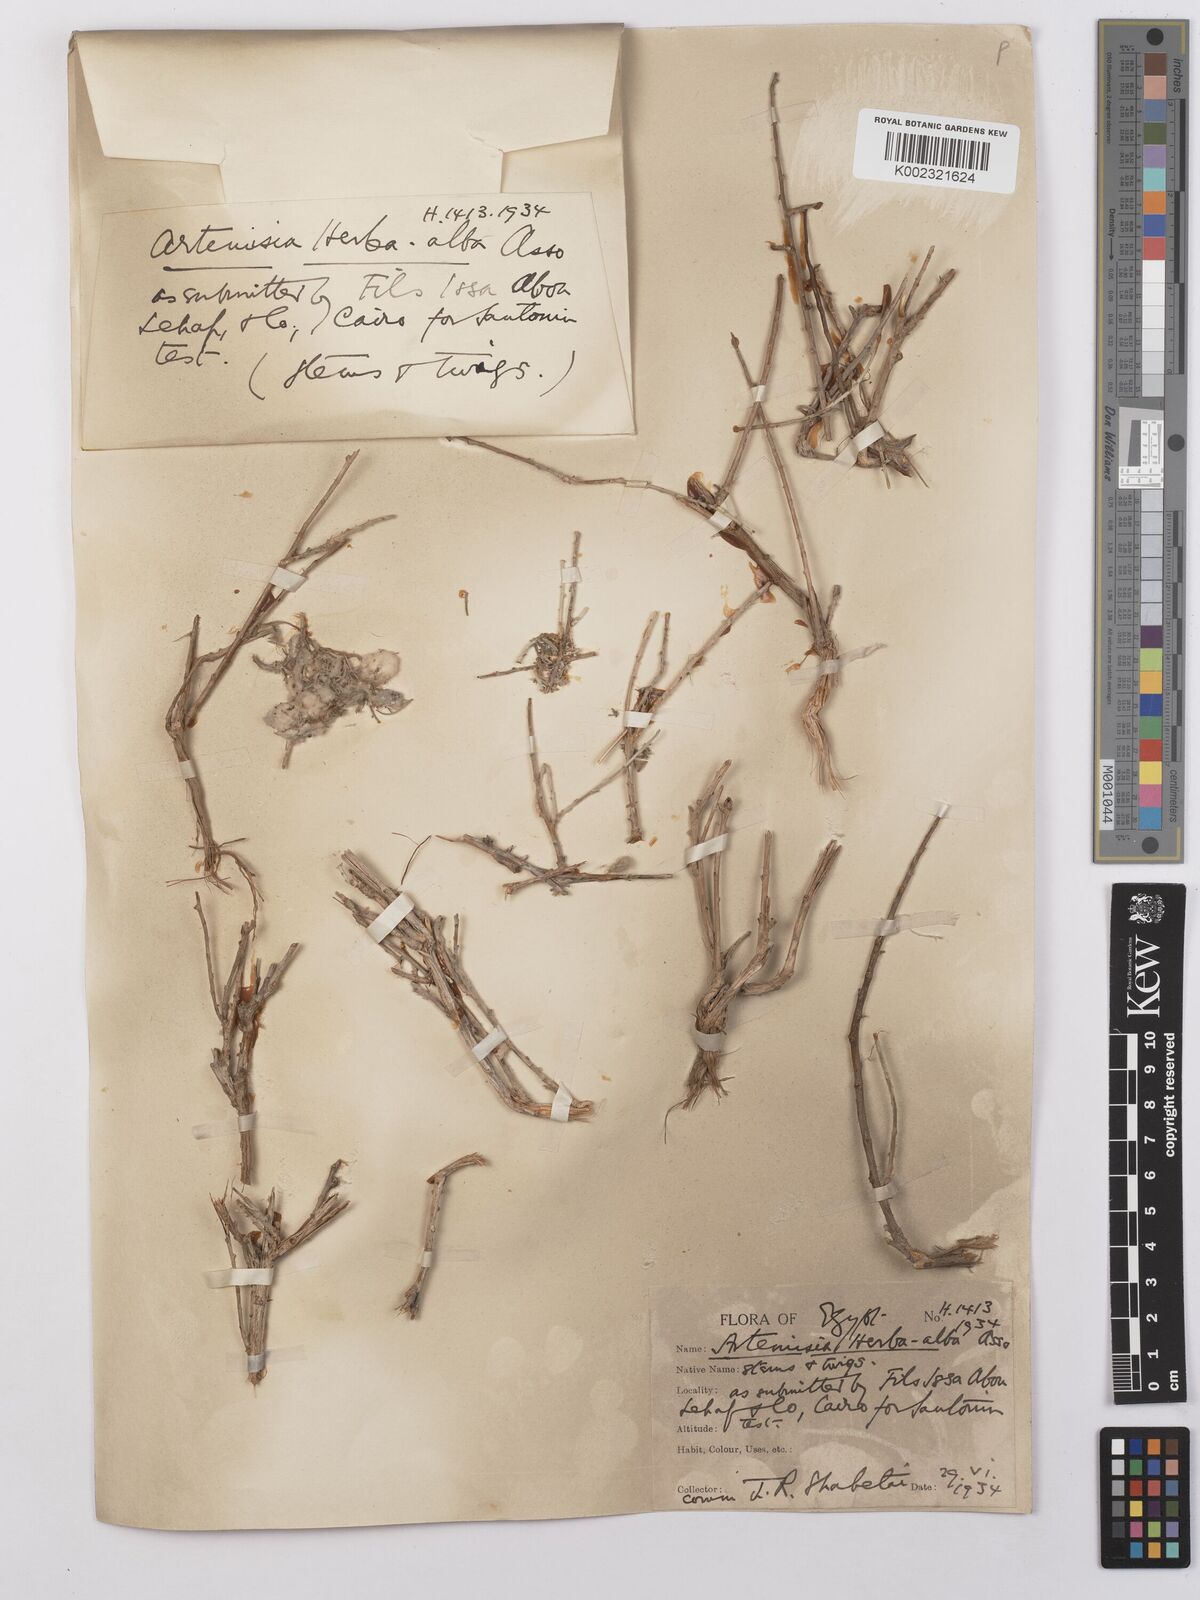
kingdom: Plantae
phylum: Tracheophyta
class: Magnoliopsida
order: Asterales
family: Asteraceae
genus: Artemisia
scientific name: Artemisia herba-alba
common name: White wormwood
